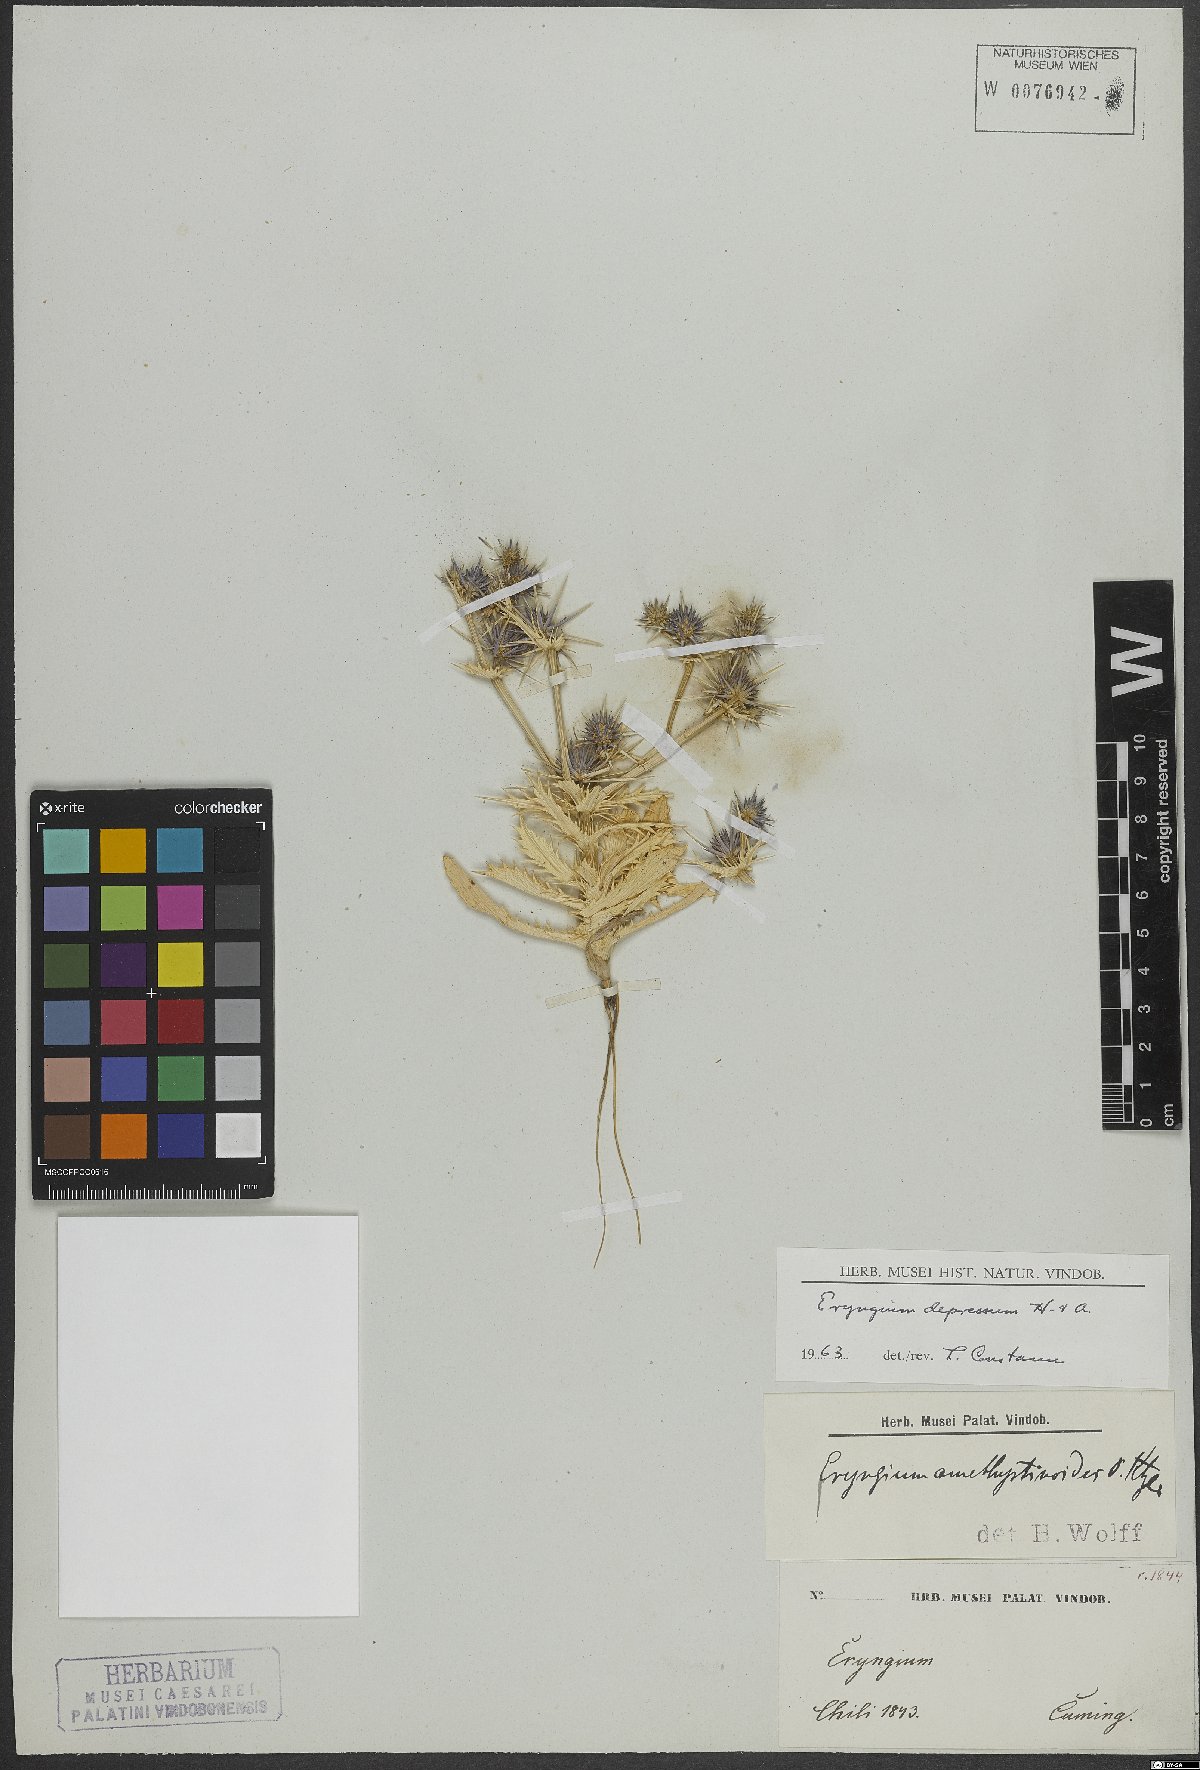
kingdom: Plantae
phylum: Tracheophyta
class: Magnoliopsida
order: Apiales
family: Apiaceae
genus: Eryngium
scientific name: Eryngium depressum
